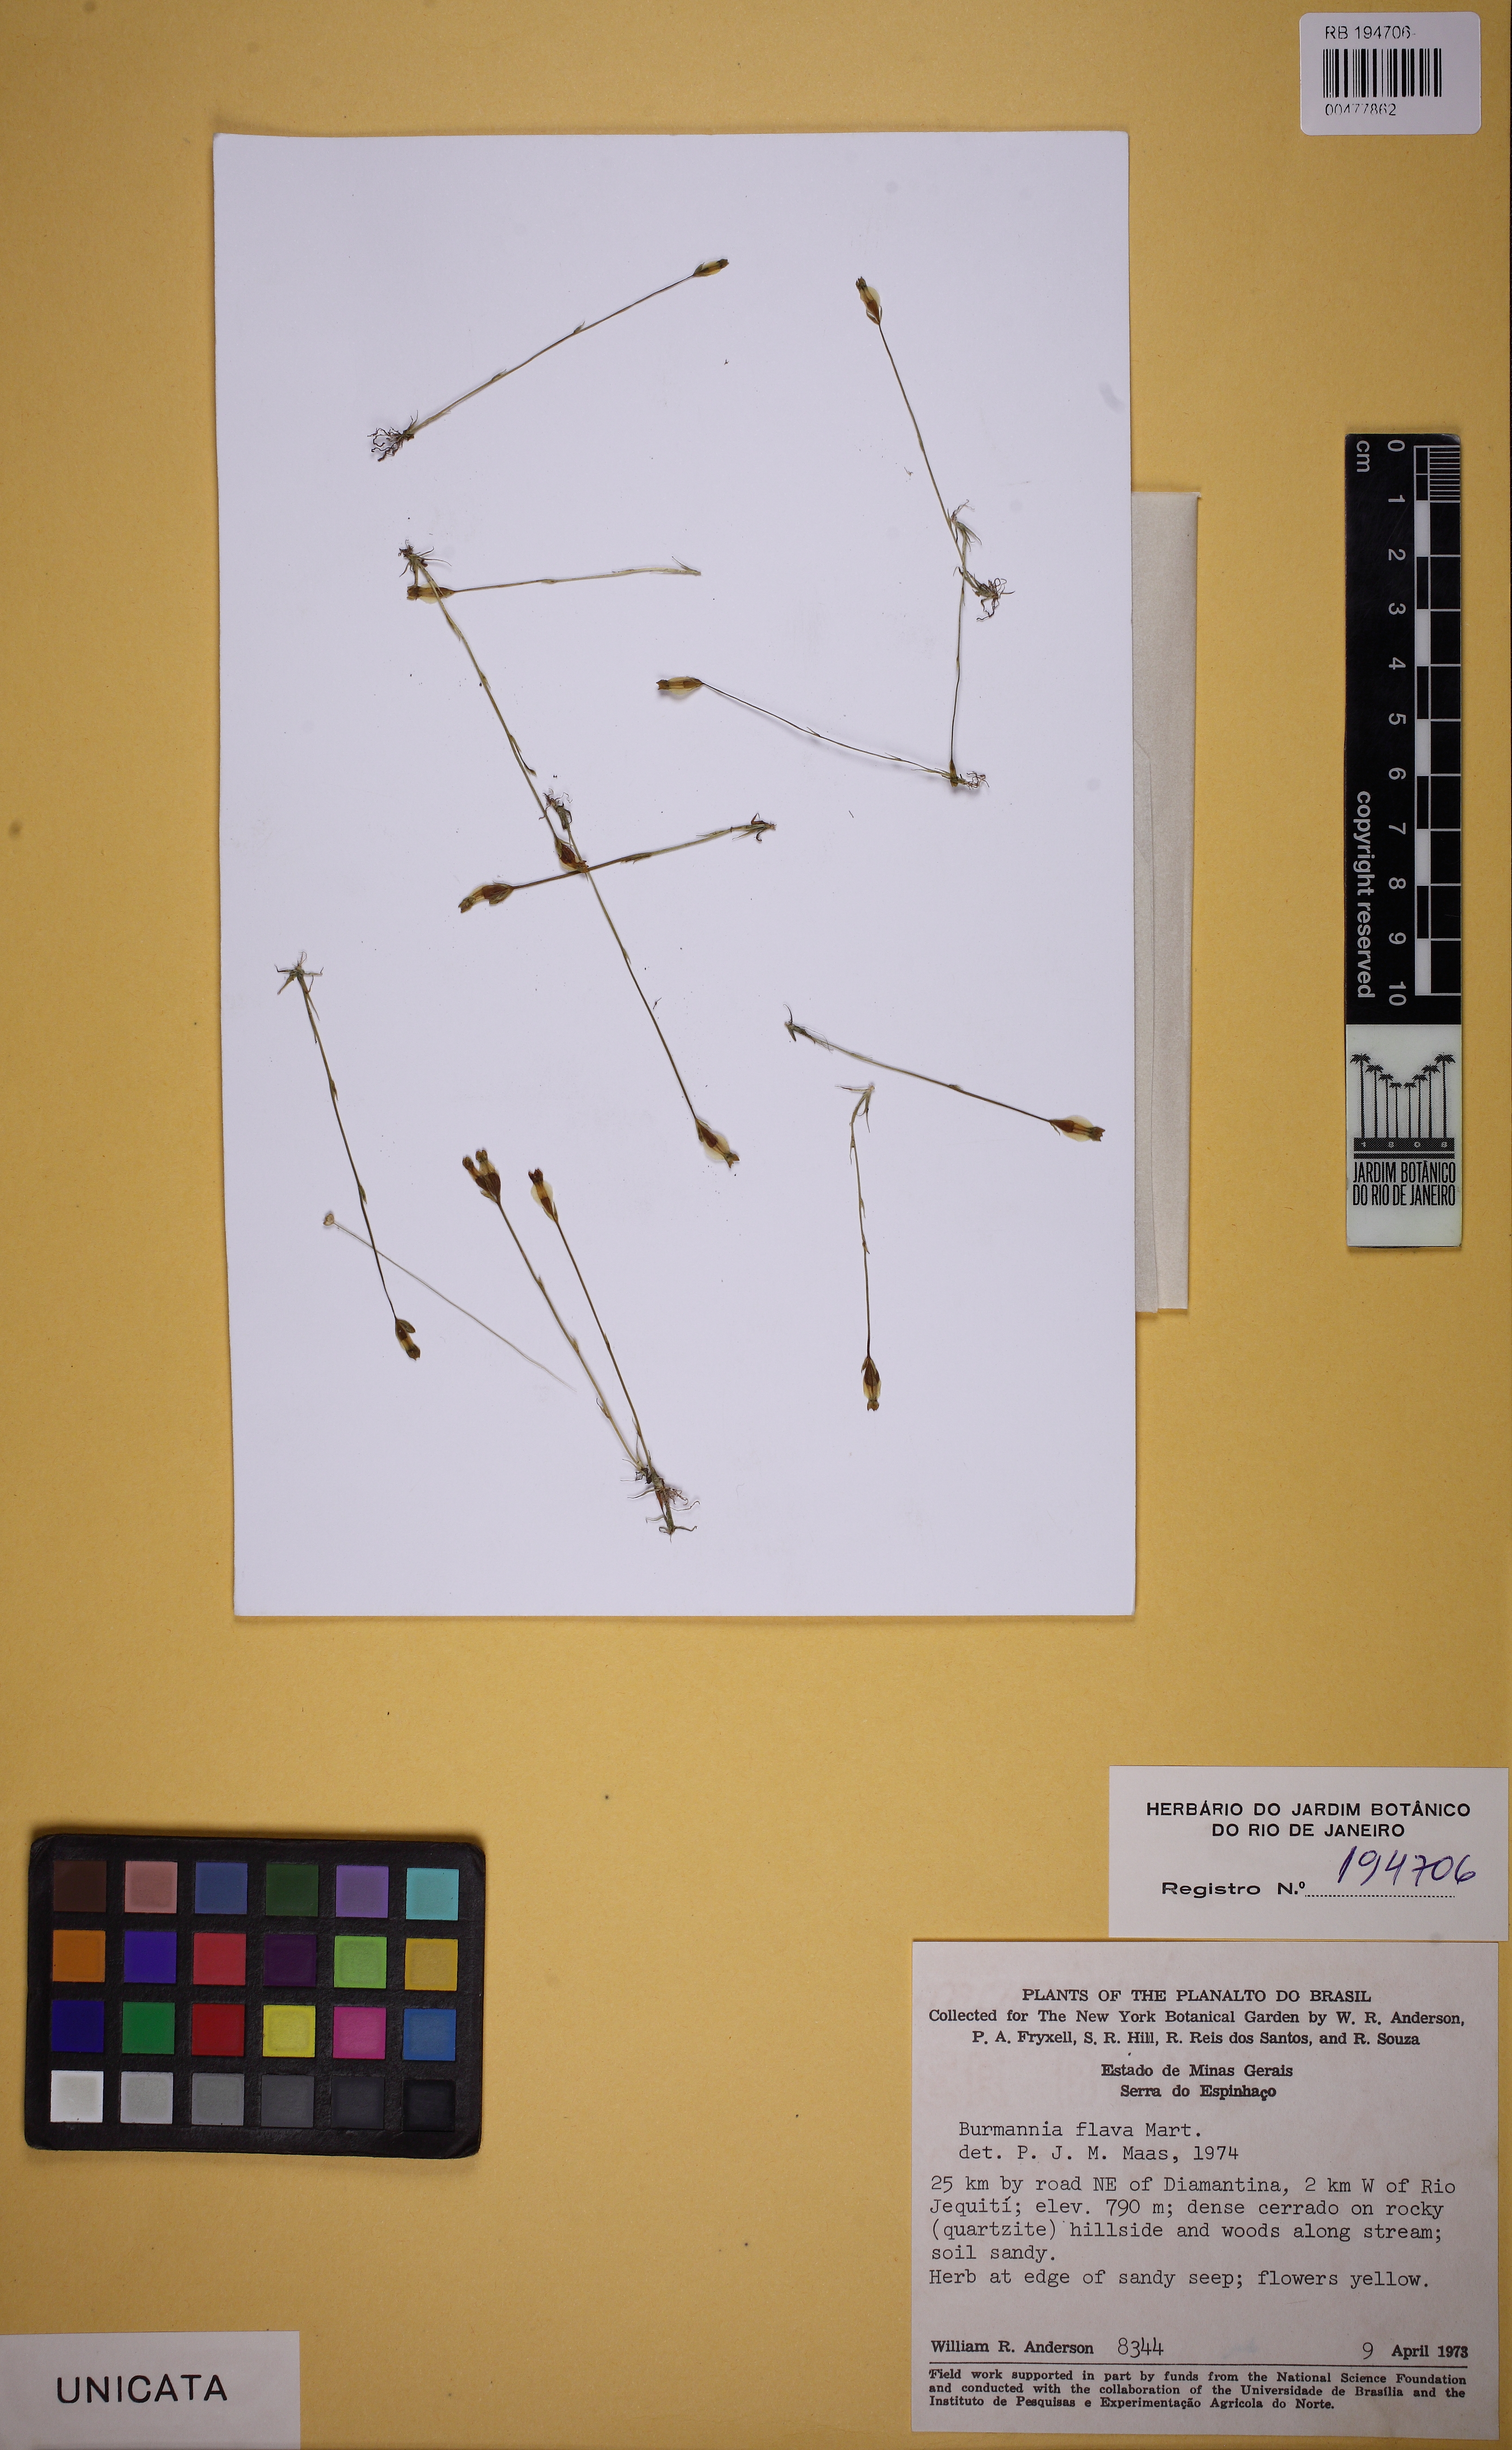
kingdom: Plantae
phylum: Tracheophyta
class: Liliopsida
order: Dioscoreales
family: Burmanniaceae
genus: Burmannia
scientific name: Burmannia flava
